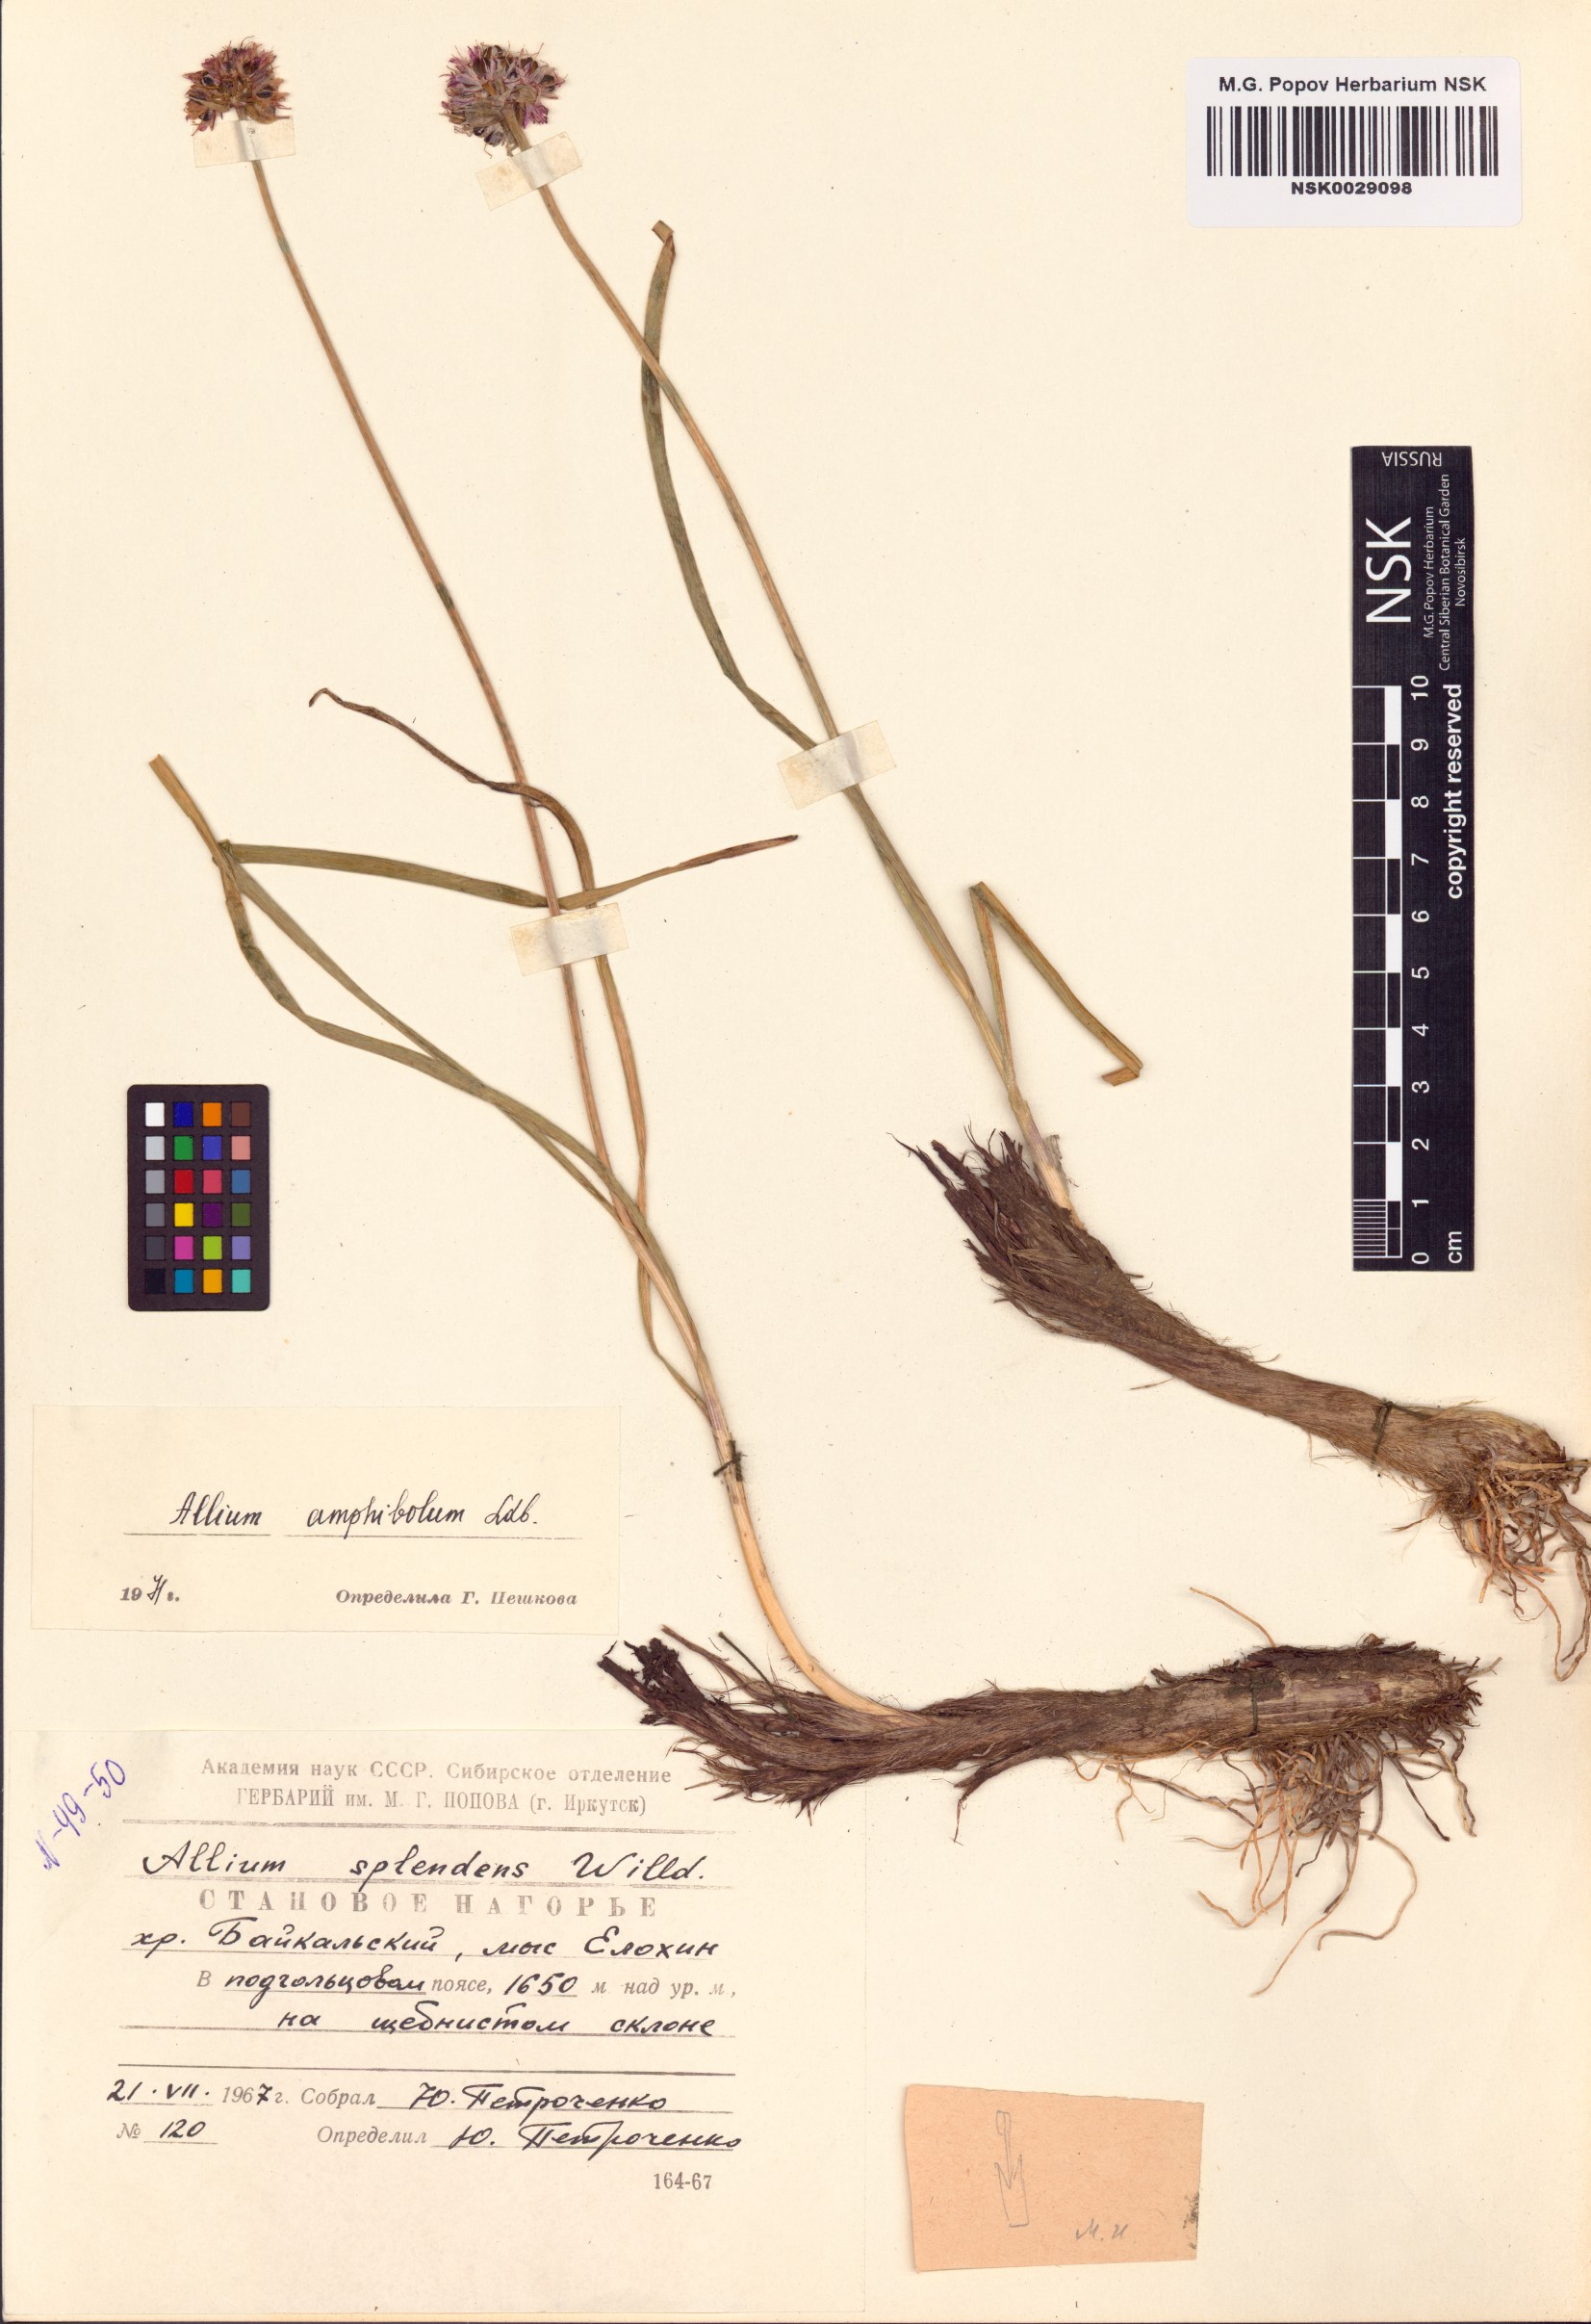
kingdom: Plantae
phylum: Tracheophyta
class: Liliopsida
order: Asparagales
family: Amaryllidaceae
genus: Allium
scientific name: Allium amphibolum
